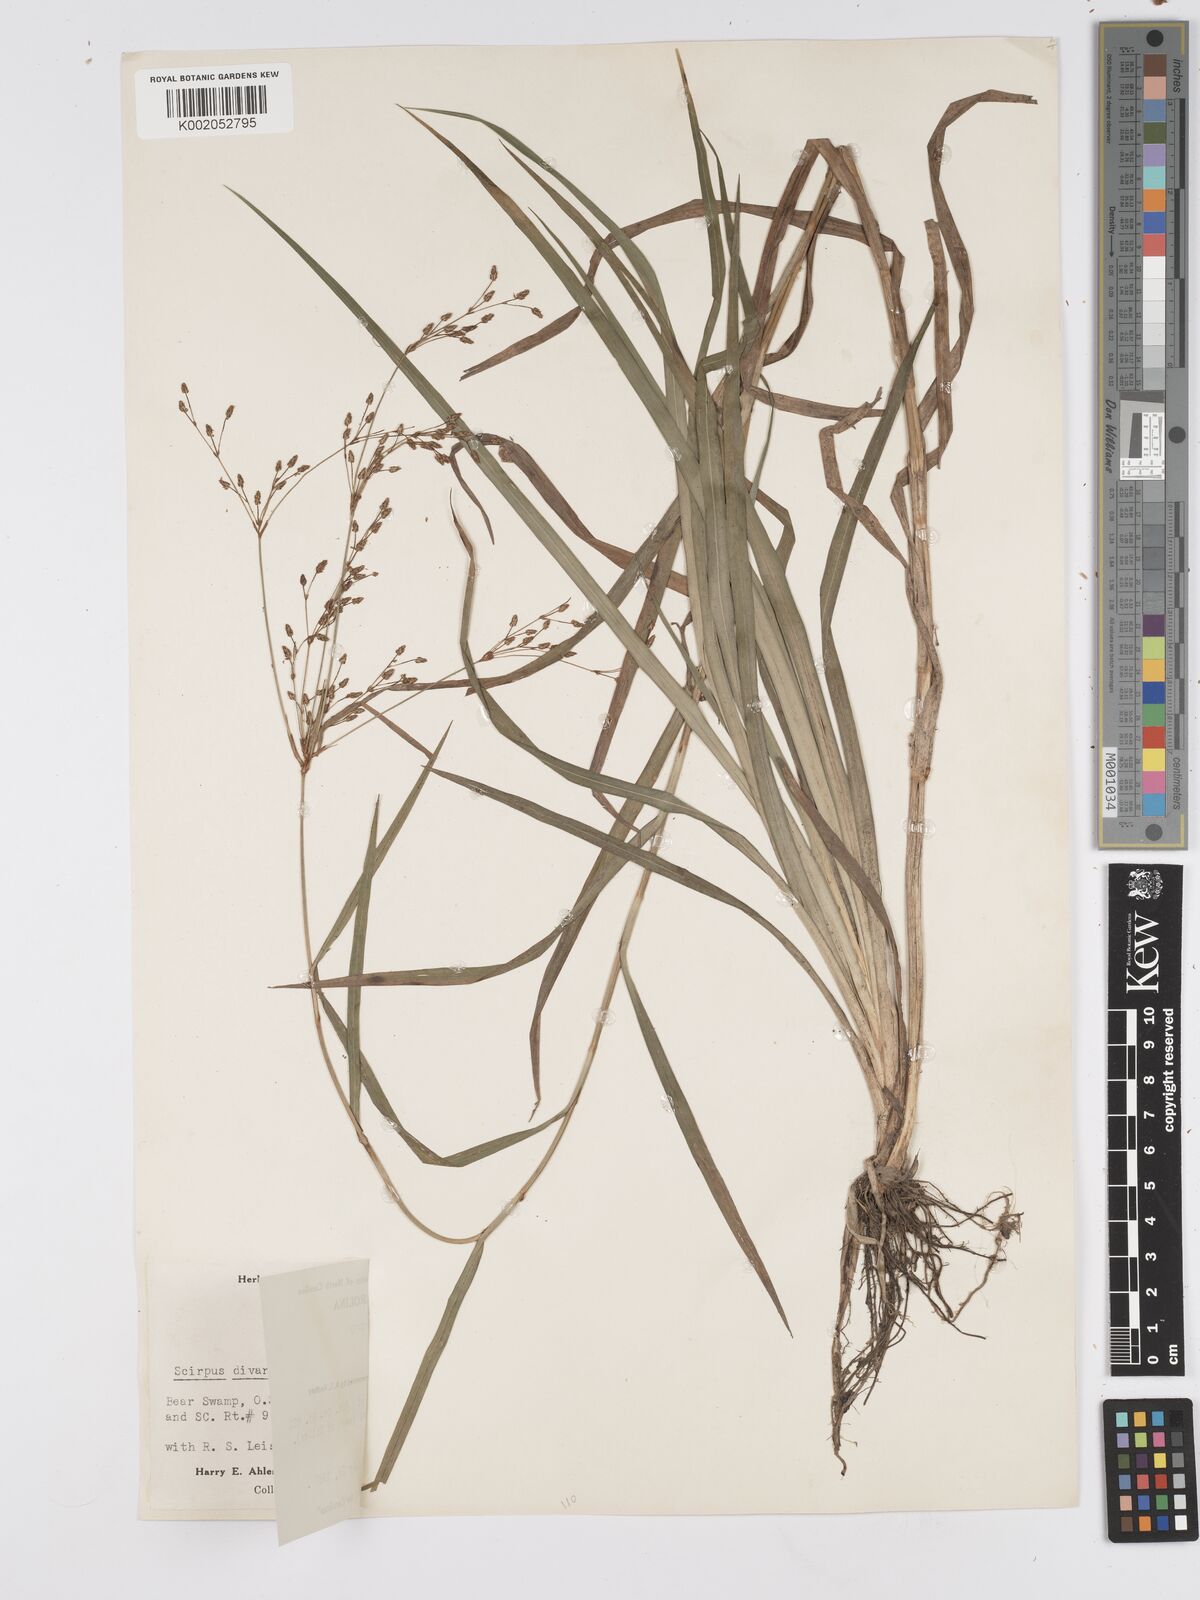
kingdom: Plantae
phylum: Tracheophyta
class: Liliopsida
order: Poales
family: Cyperaceae
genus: Scirpus
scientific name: Scirpus divaricatus
